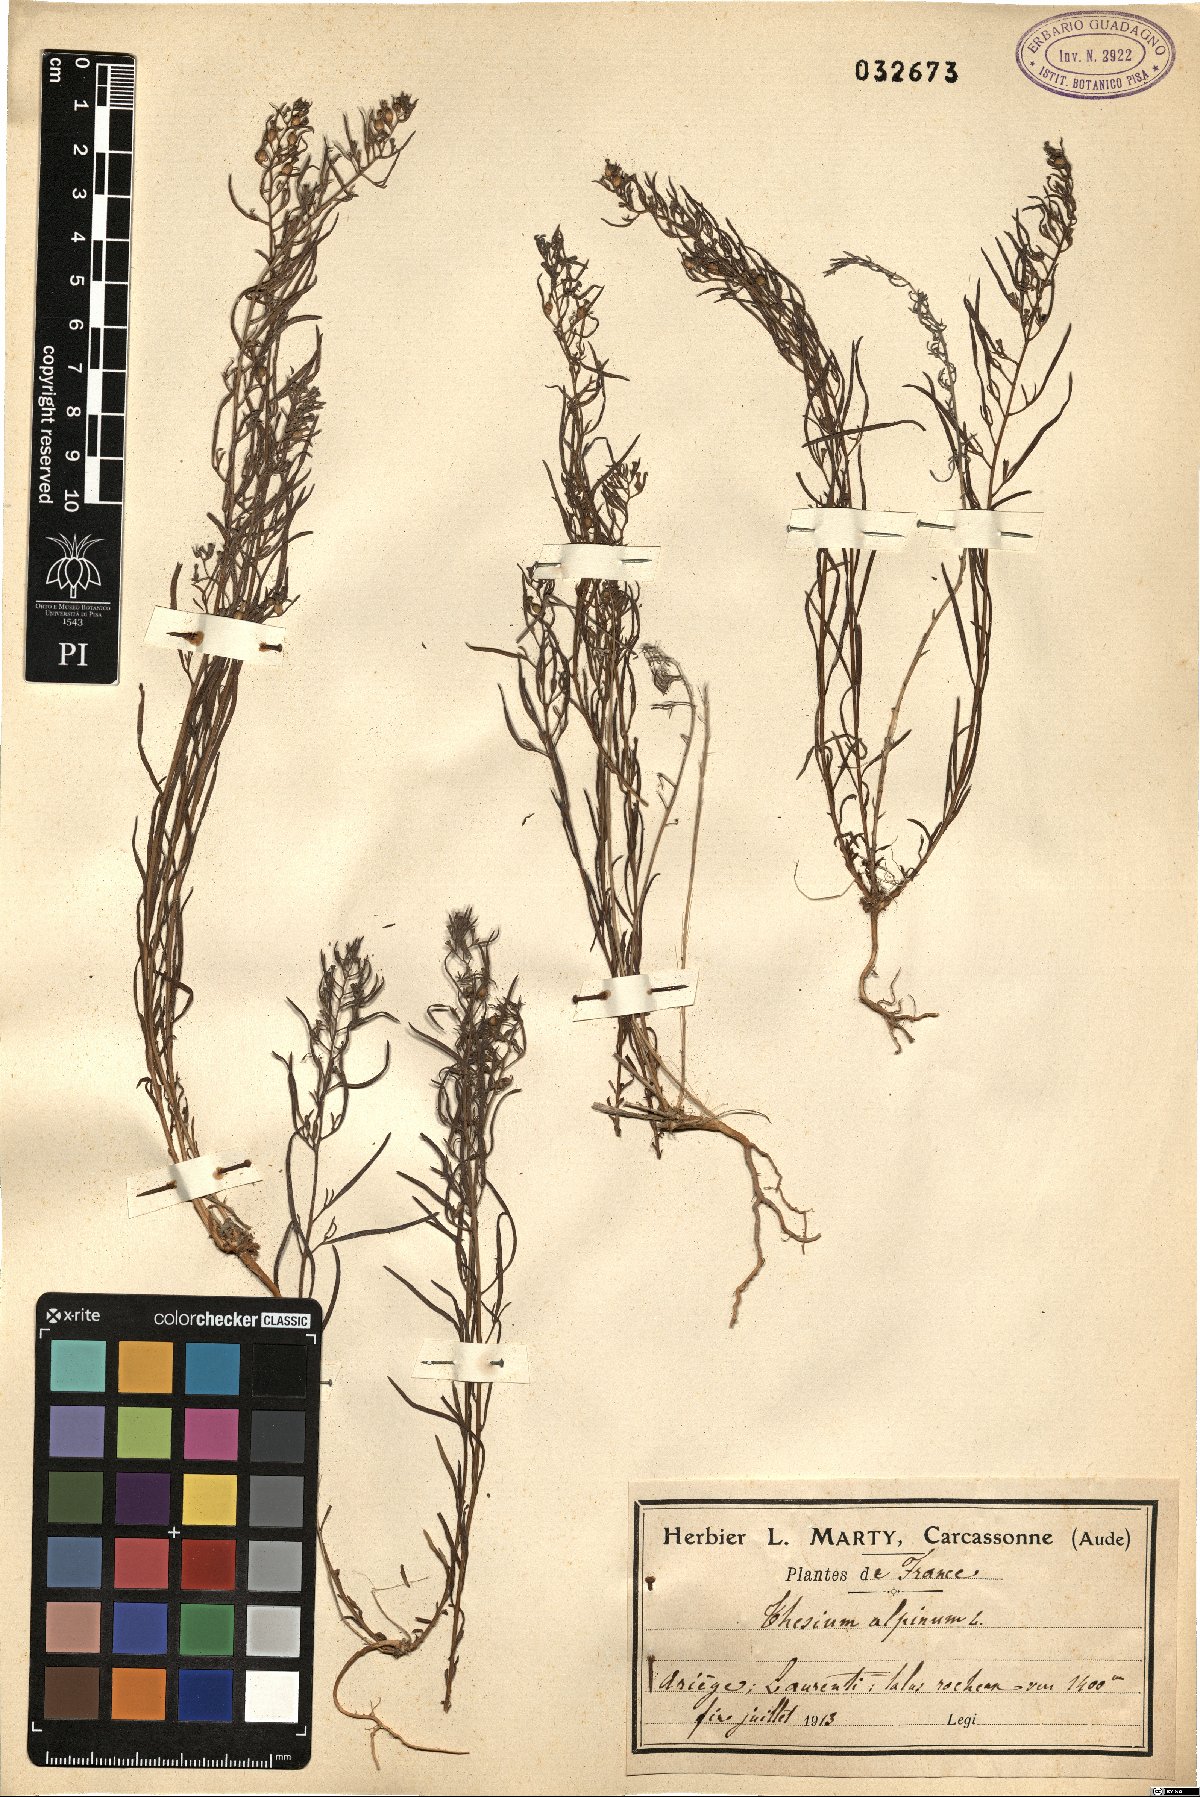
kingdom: Plantae
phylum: Tracheophyta
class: Magnoliopsida
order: Santalales
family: Thesiaceae
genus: Thesium
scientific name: Thesium alpinum
